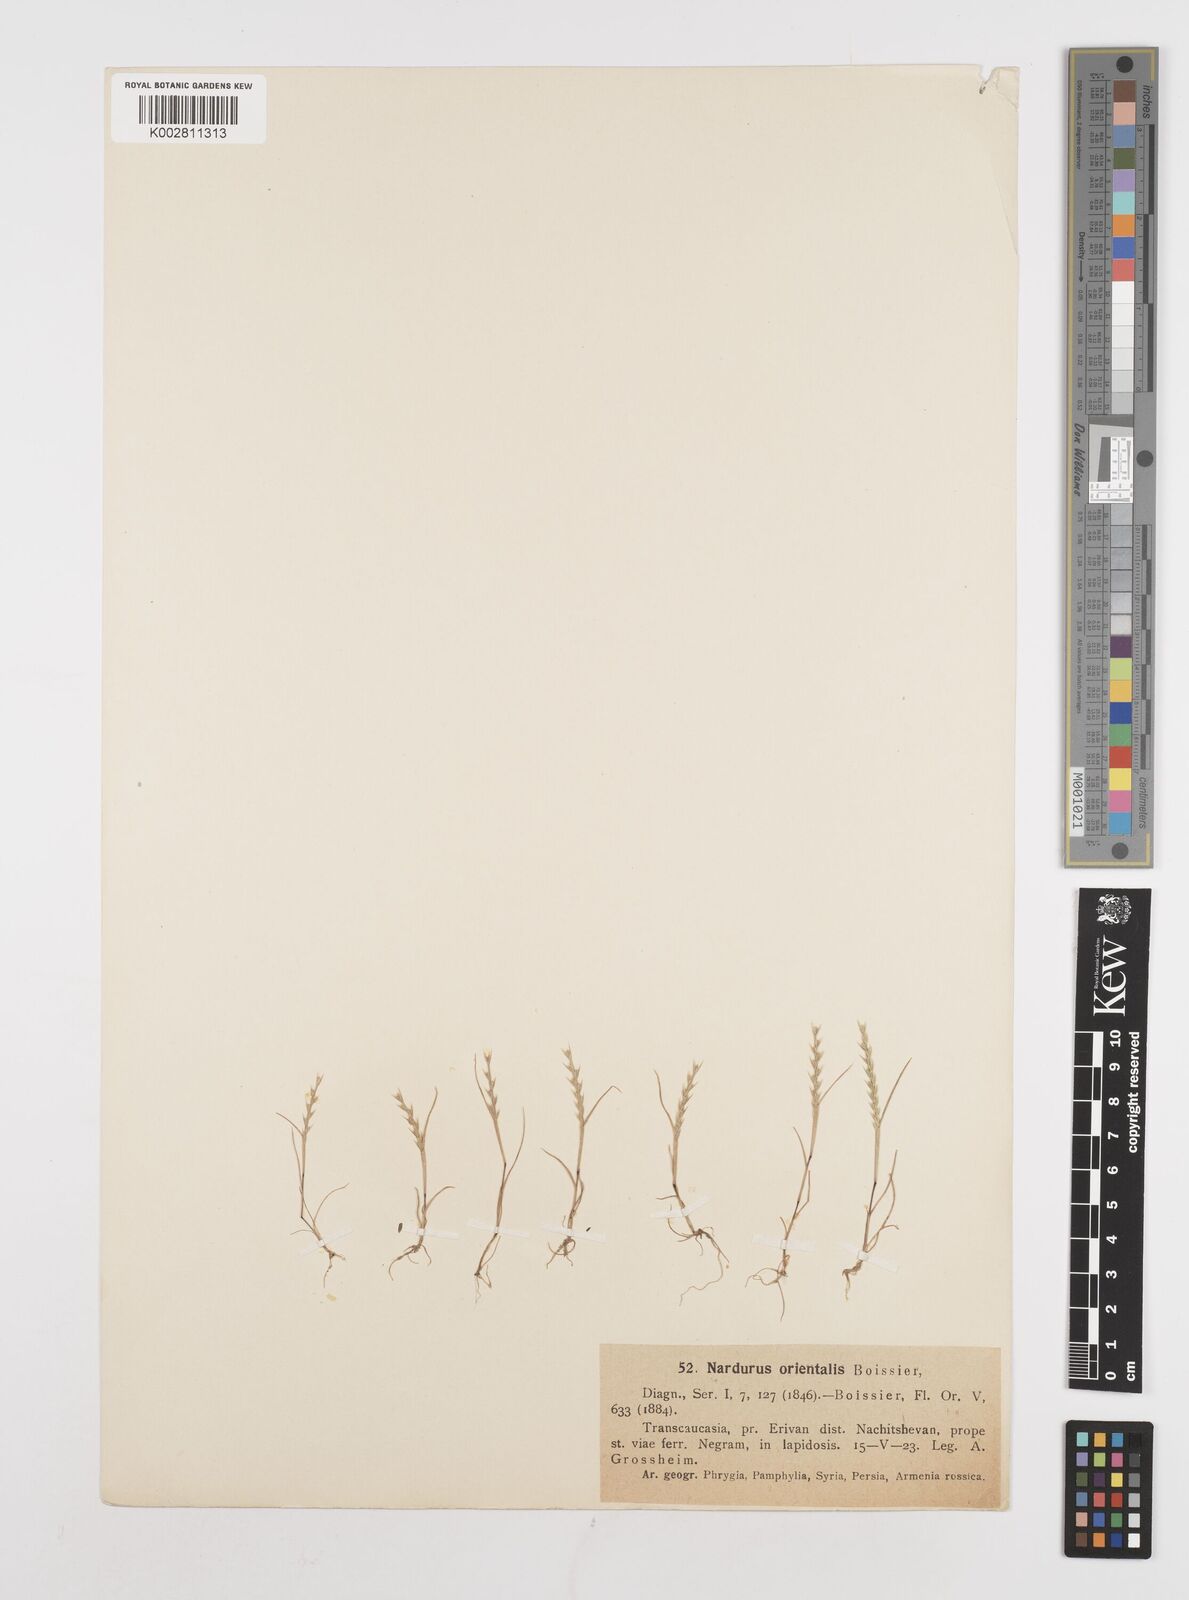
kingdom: Plantae
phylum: Tracheophyta
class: Liliopsida
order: Poales
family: Poaceae
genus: Festuca
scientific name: Festuca orientalis
